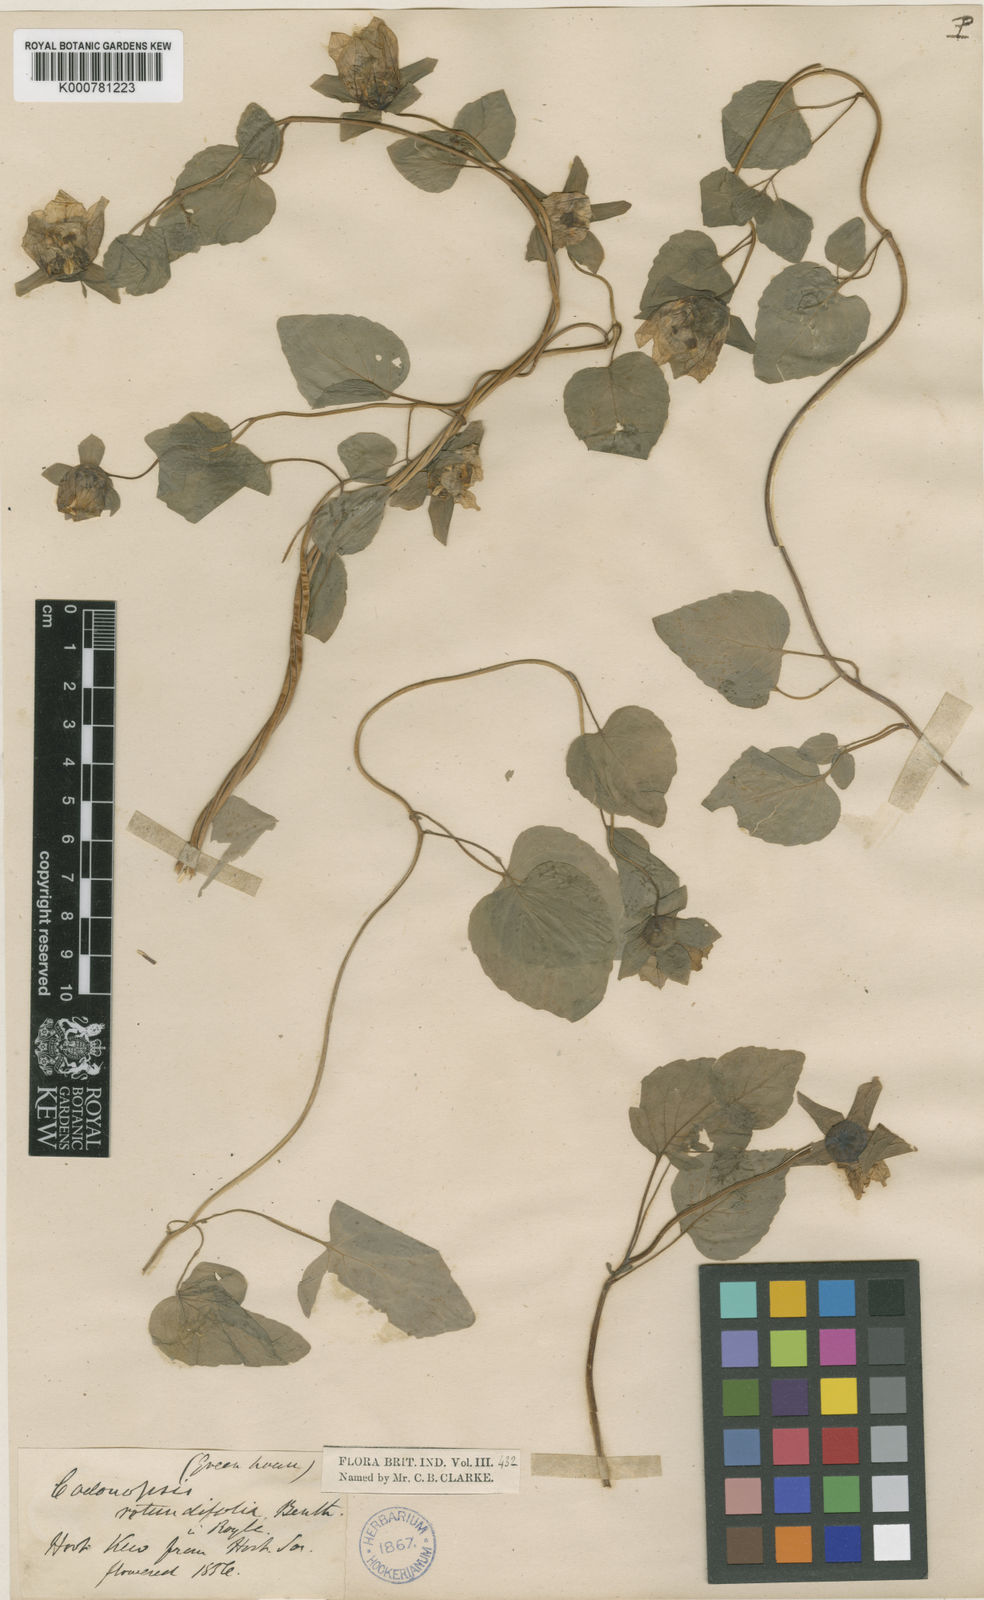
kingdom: Plantae
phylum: Tracheophyta
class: Magnoliopsida
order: Asterales
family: Campanulaceae
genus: Codonopsis
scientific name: Codonopsis rotundifolia
